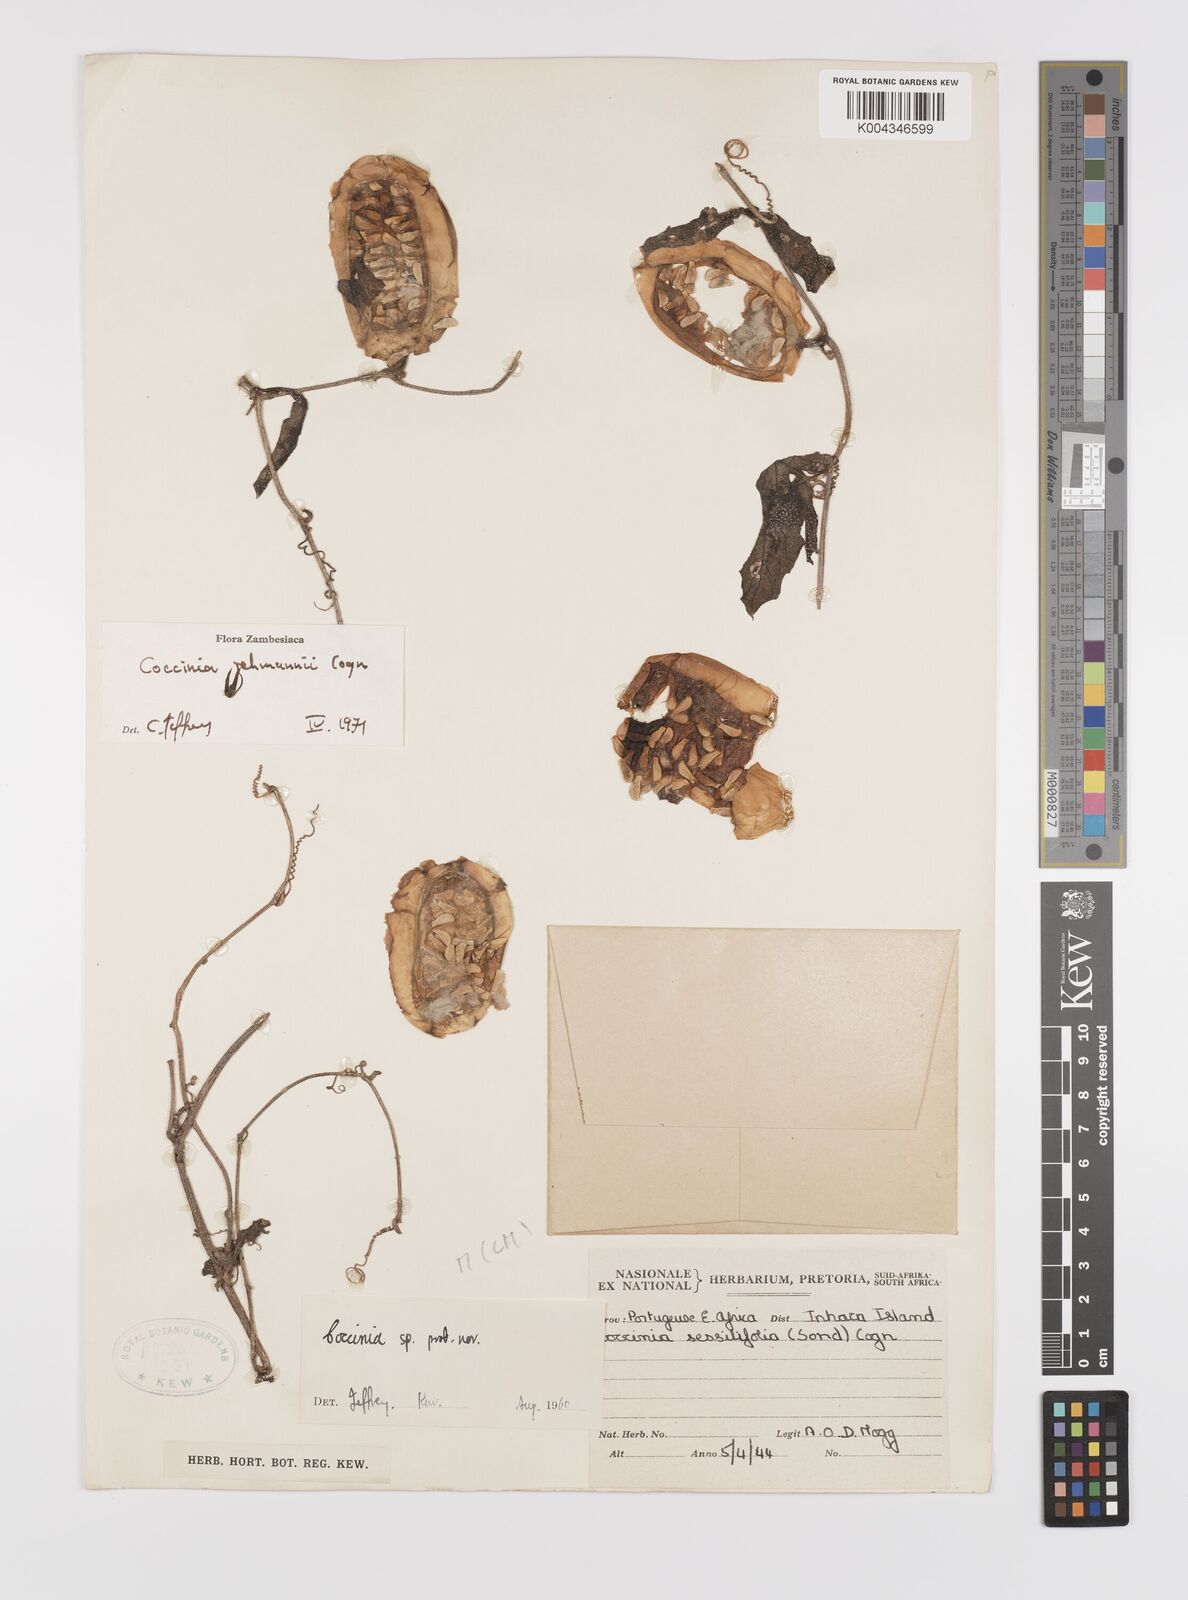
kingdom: Plantae
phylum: Tracheophyta
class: Magnoliopsida
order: Cucurbitales
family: Cucurbitaceae
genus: Coccinia
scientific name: Coccinia rehmannii
